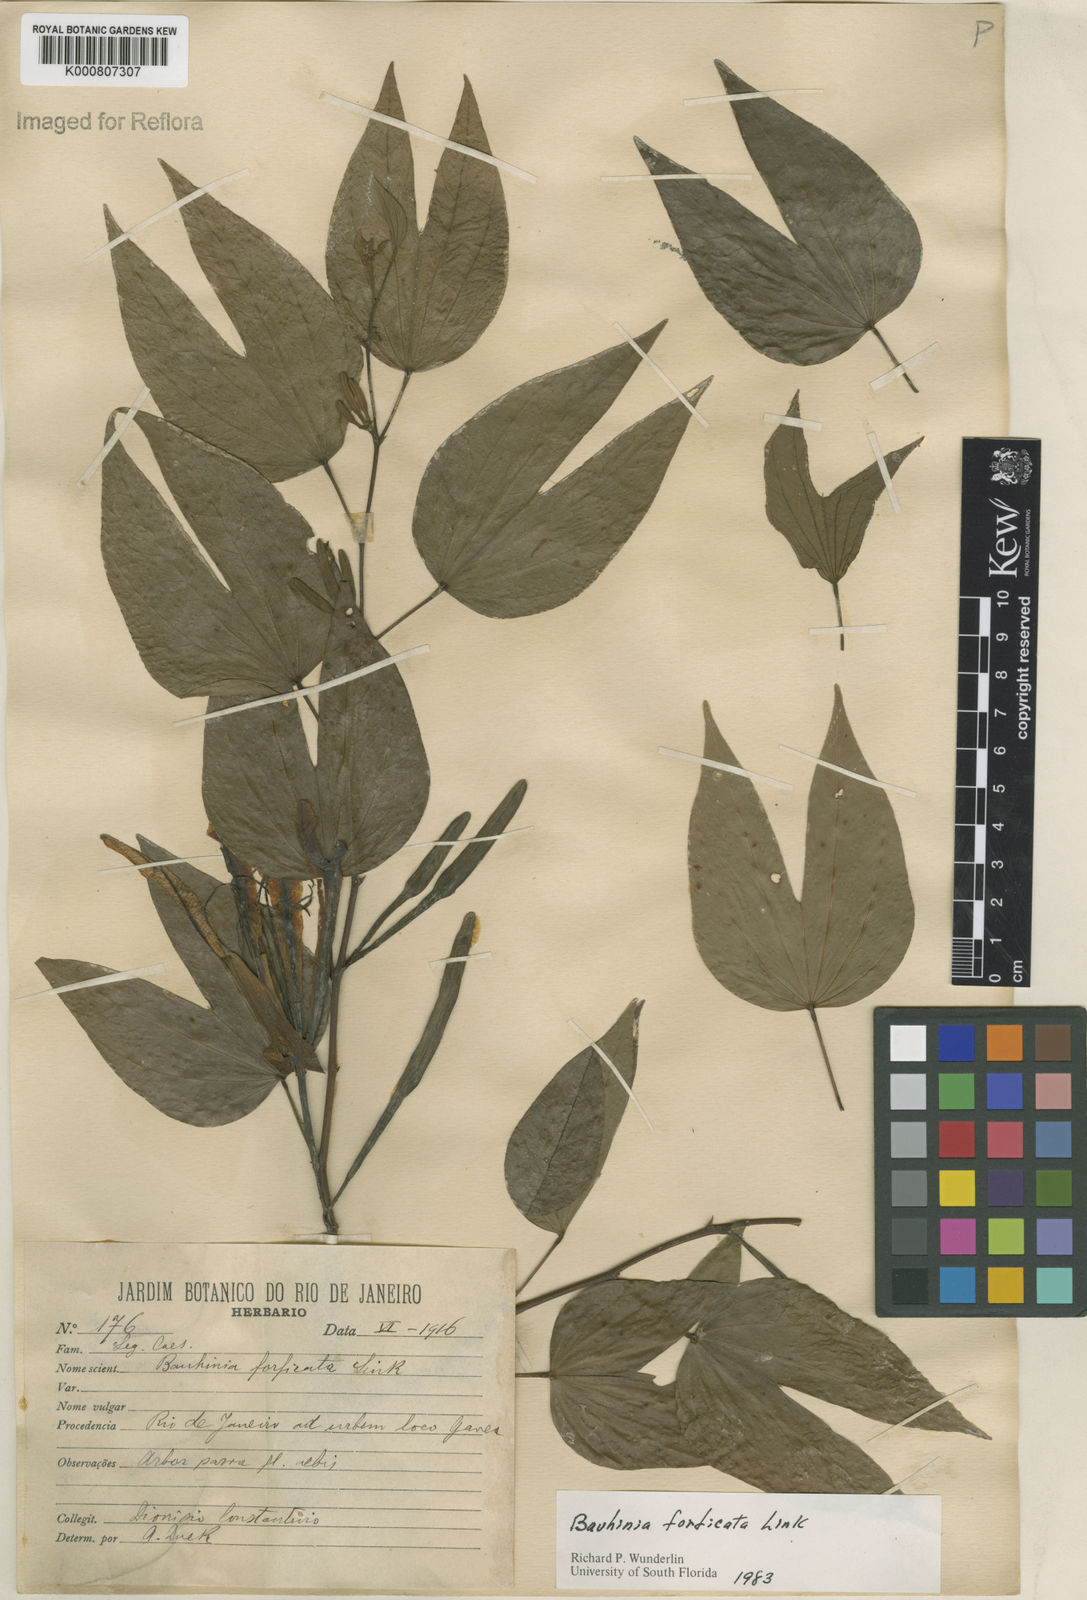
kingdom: Plantae
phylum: Tracheophyta
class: Magnoliopsida
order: Fabales
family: Fabaceae
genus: Bauhinia
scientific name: Bauhinia forficata
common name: Orchid tree
